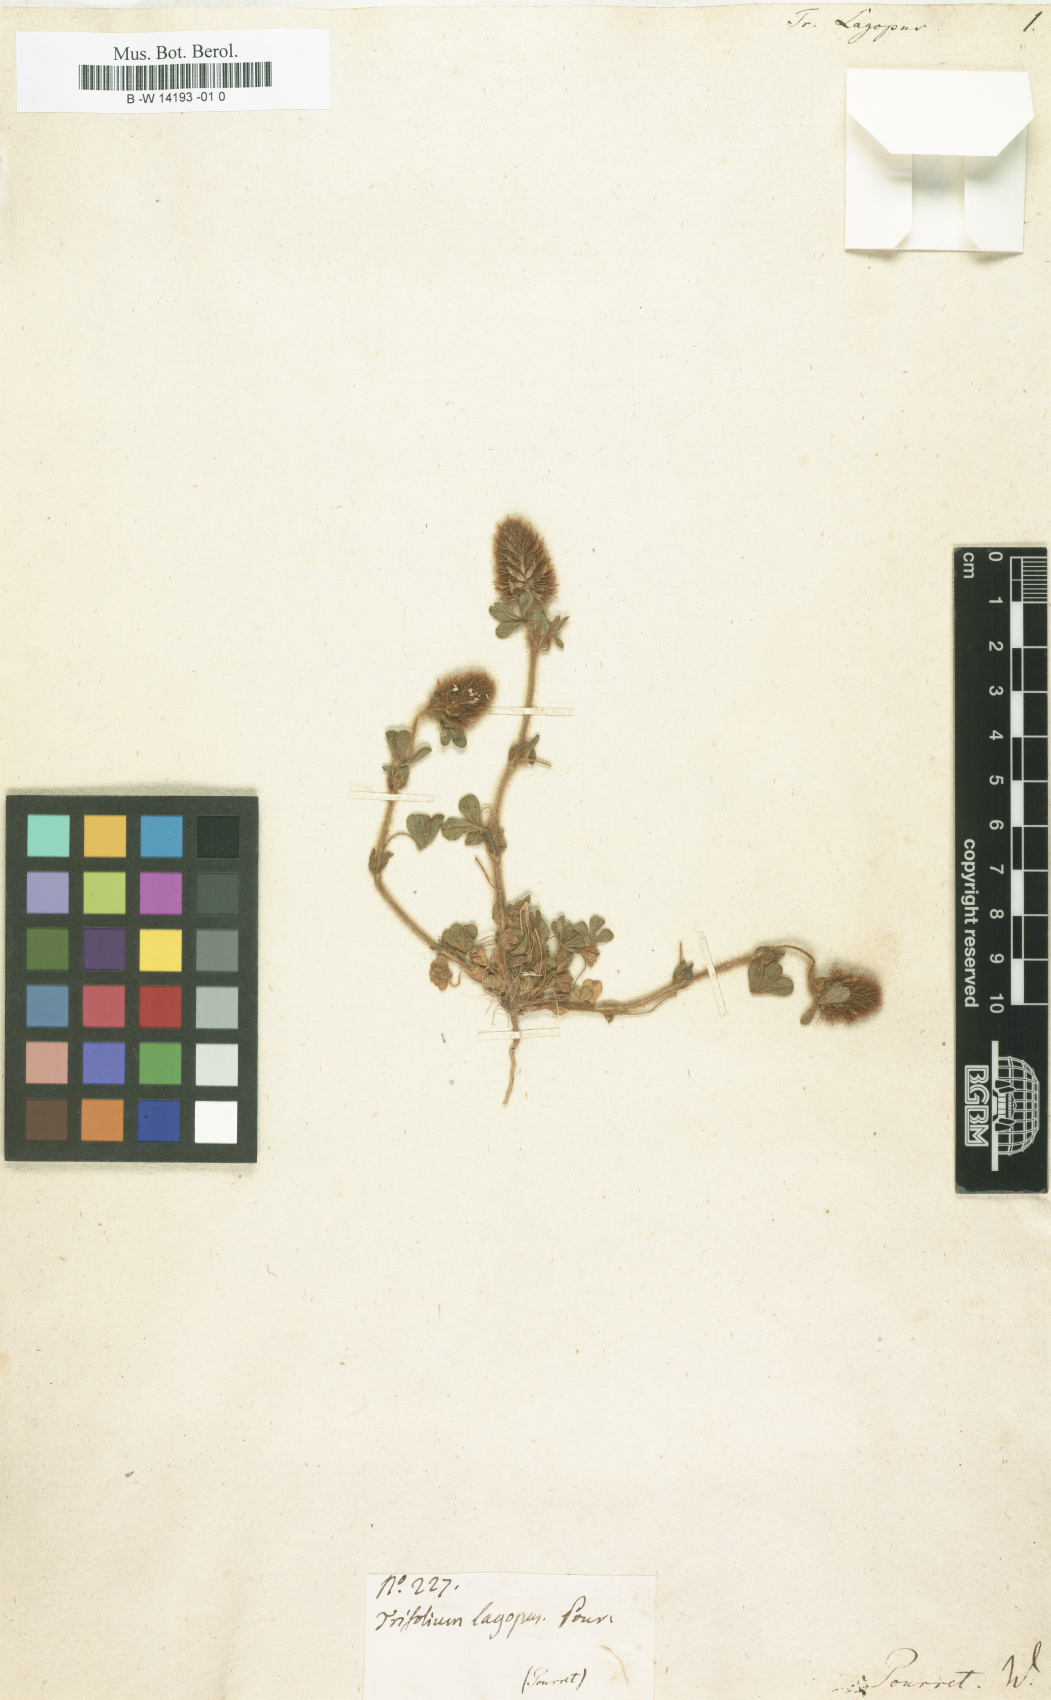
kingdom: Plantae
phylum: Tracheophyta
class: Magnoliopsida
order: Fabales
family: Fabaceae
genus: Trifolium
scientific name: Trifolium arvense
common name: Hare's-foot clover
